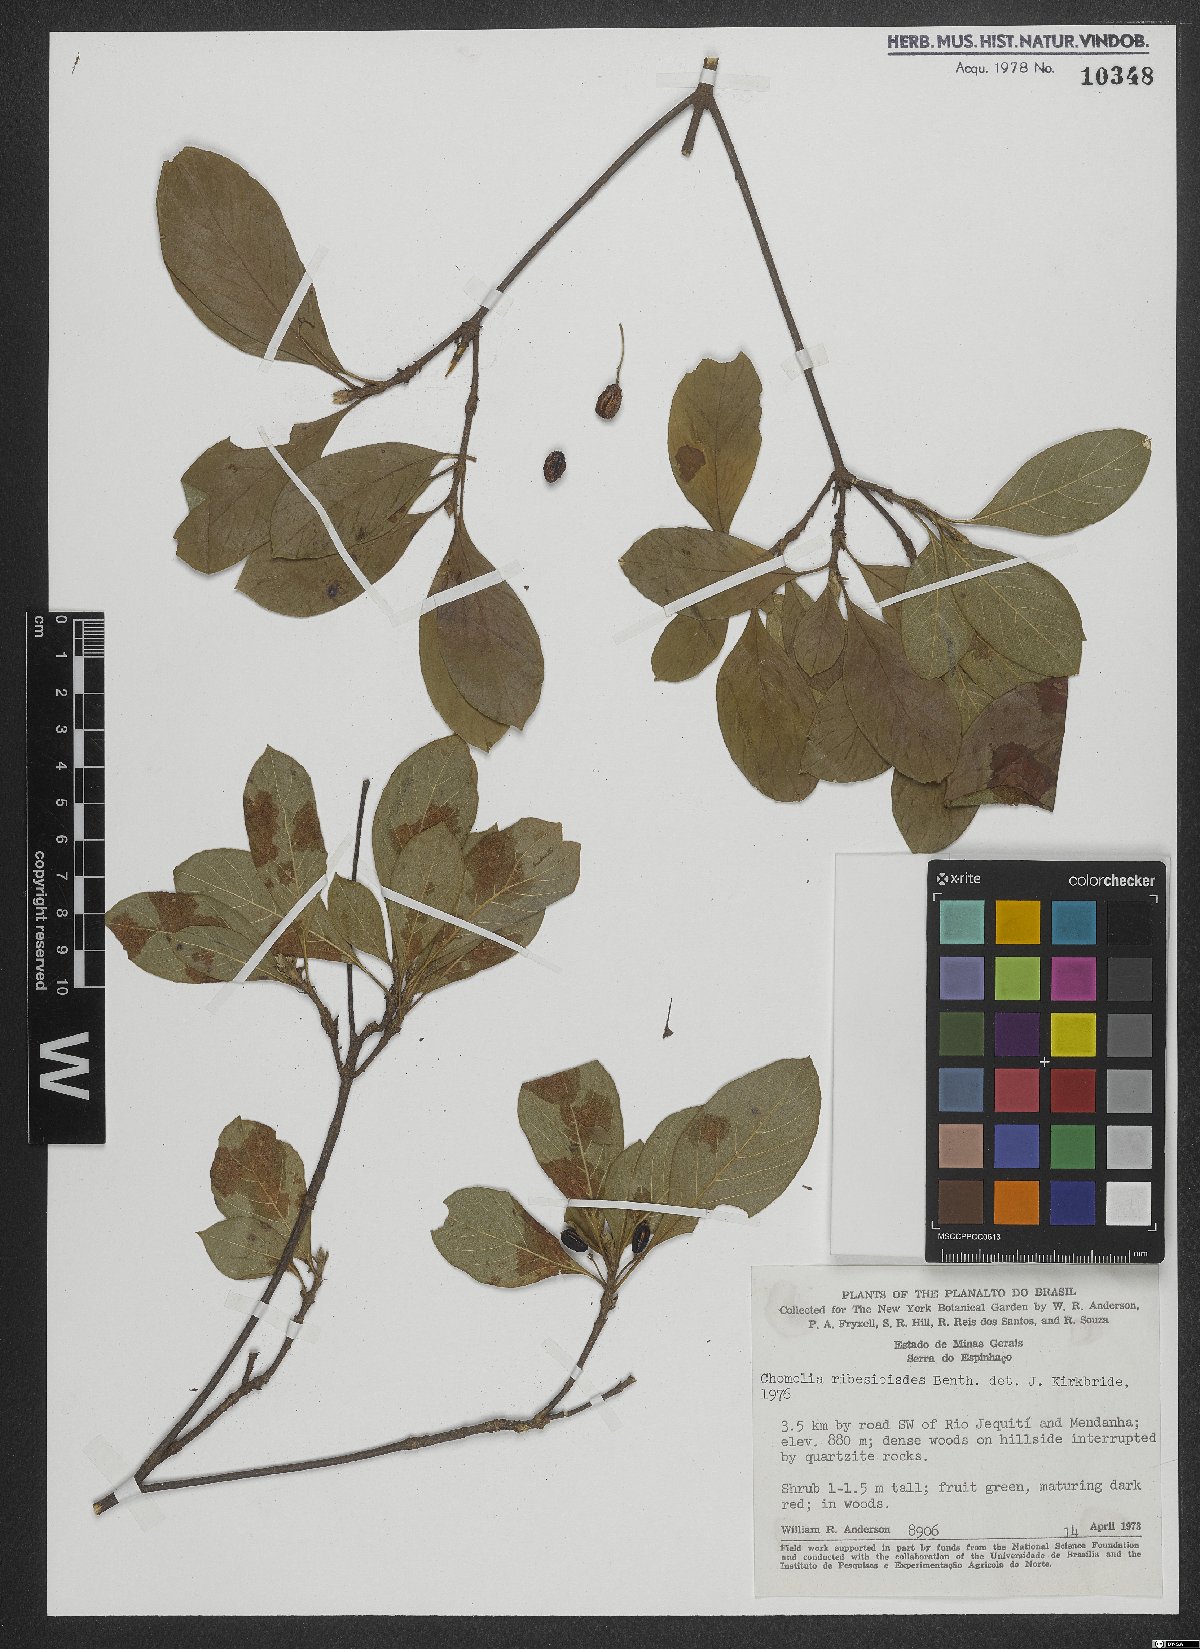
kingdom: Plantae
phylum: Tracheophyta
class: Magnoliopsida
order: Gentianales
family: Rubiaceae
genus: Chomelia
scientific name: Chomelia ribesioides
